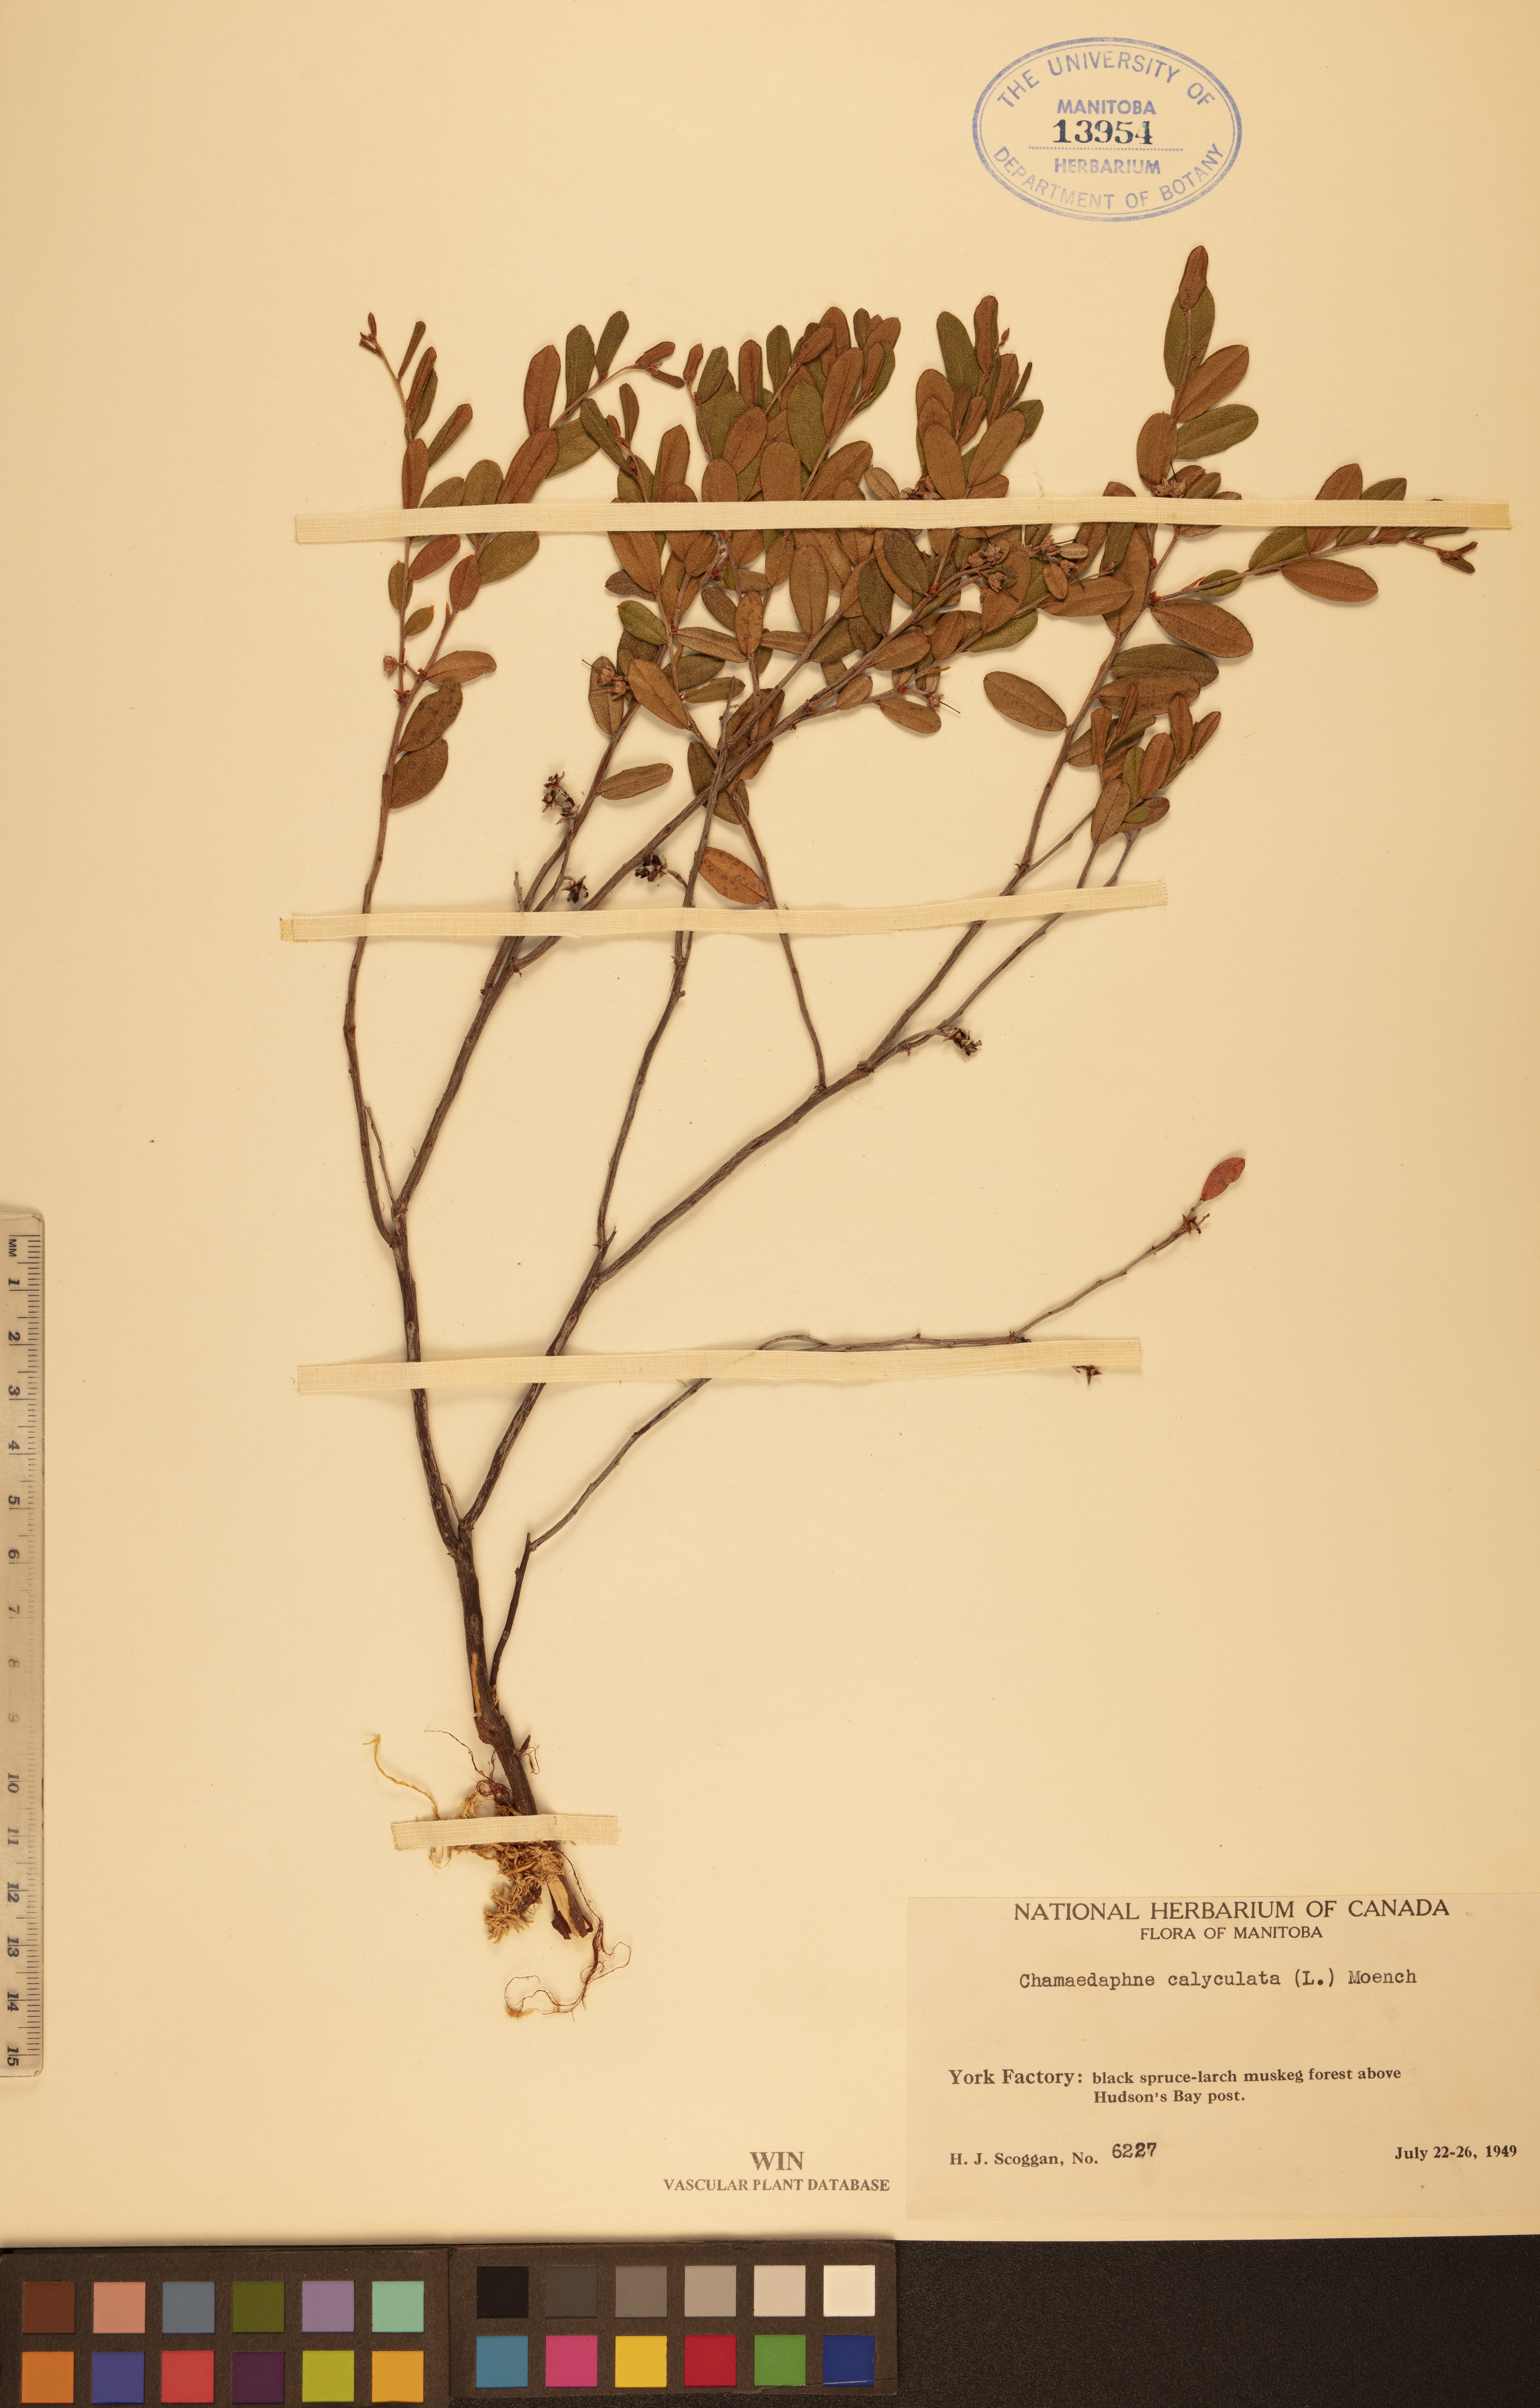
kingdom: Plantae
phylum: Tracheophyta
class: Magnoliopsida
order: Ericales
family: Ericaceae
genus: Chamaedaphne
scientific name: Chamaedaphne calyculata
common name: Leatherleaf
